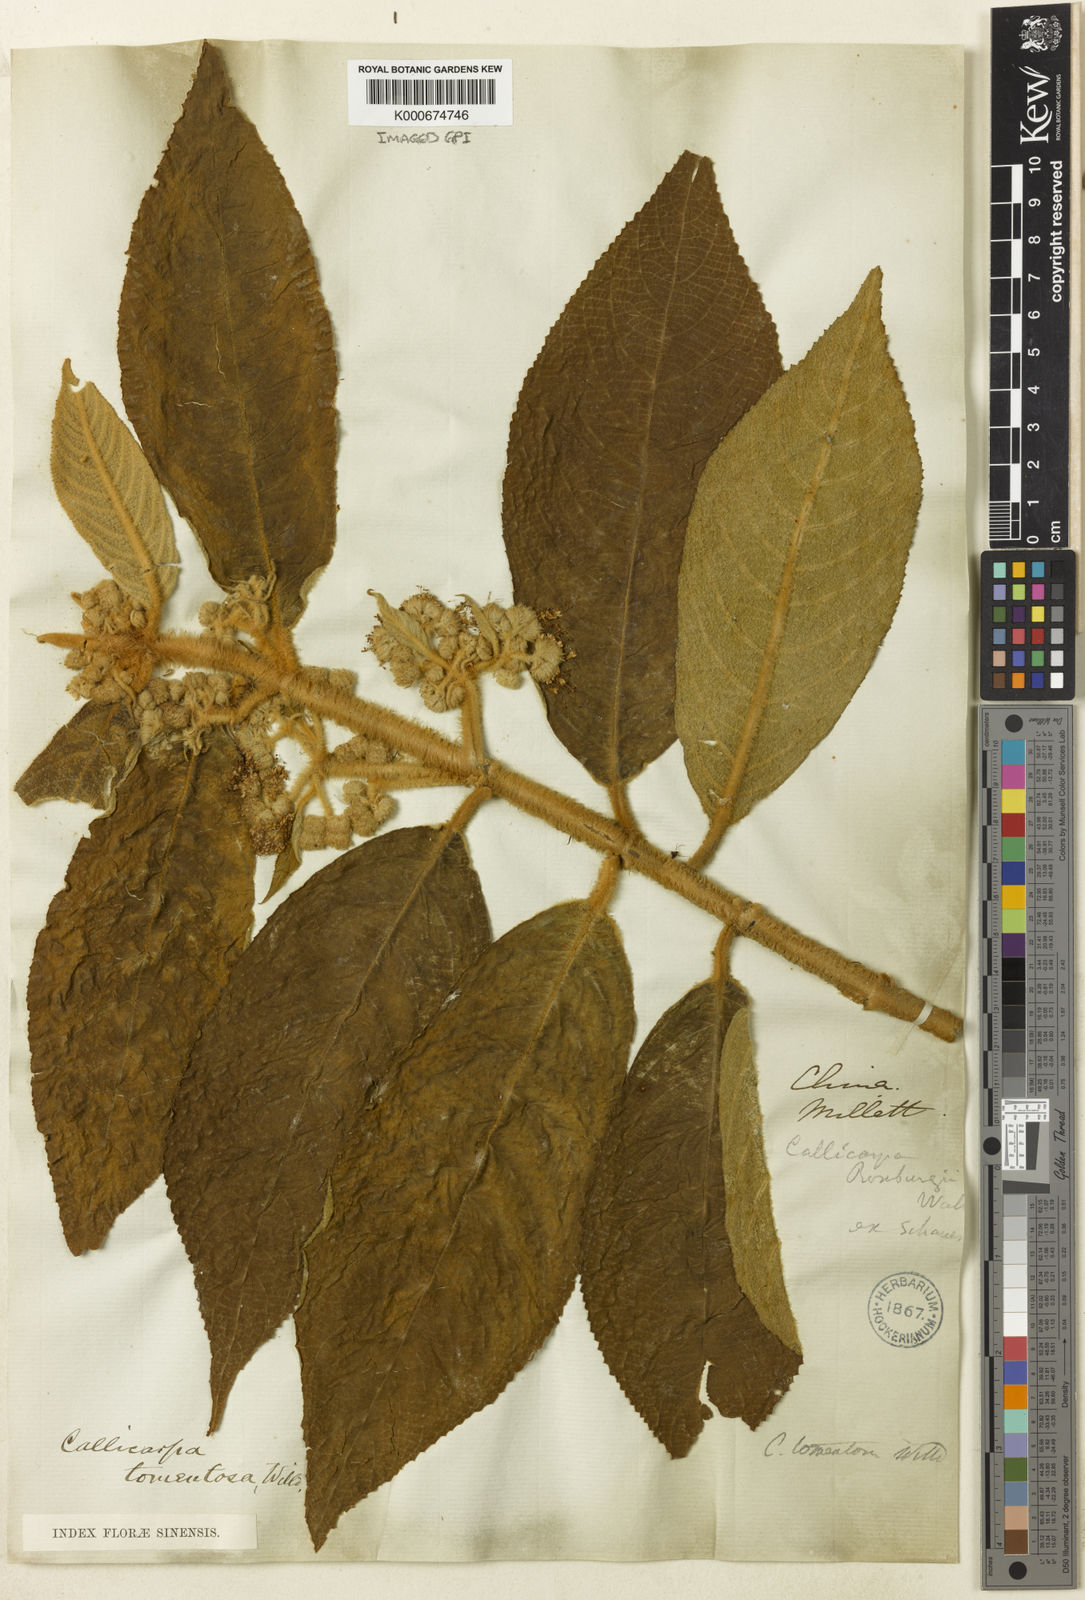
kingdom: Plantae
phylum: Tracheophyta
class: Magnoliopsida
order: Lamiales
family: Lamiaceae
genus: Callicarpa
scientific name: Callicarpa
